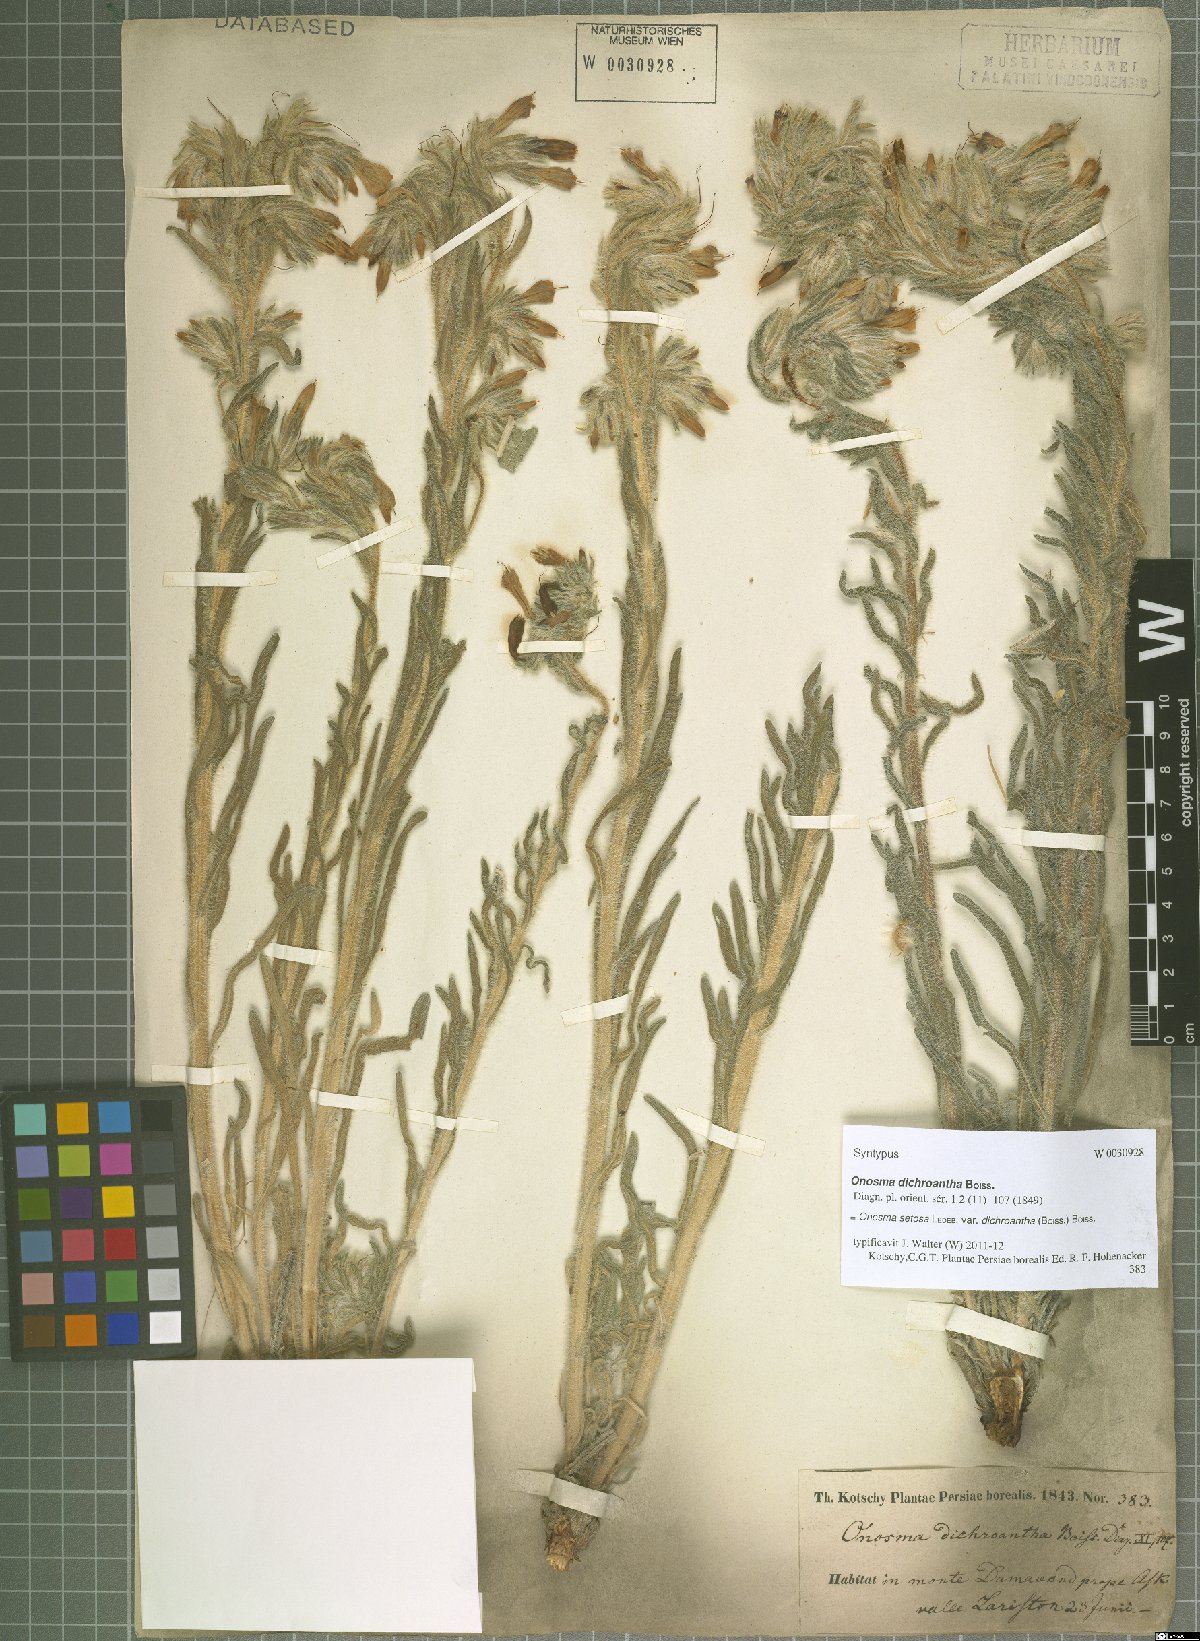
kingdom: Plantae
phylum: Tracheophyta
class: Magnoliopsida
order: Boraginales
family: Boraginaceae
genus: Onosma
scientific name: Onosma dichroantha
